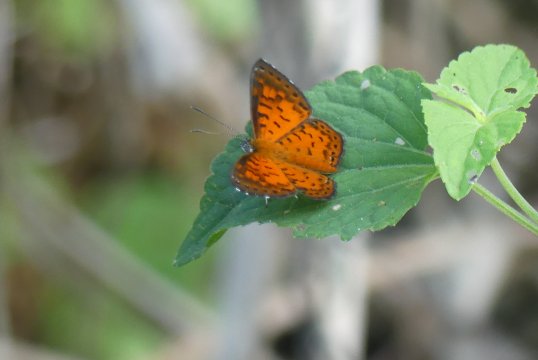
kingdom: Animalia
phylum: Arthropoda
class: Insecta
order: Lepidoptera
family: Riodinidae
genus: Polystichtis
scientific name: Polystichtis lucianus
